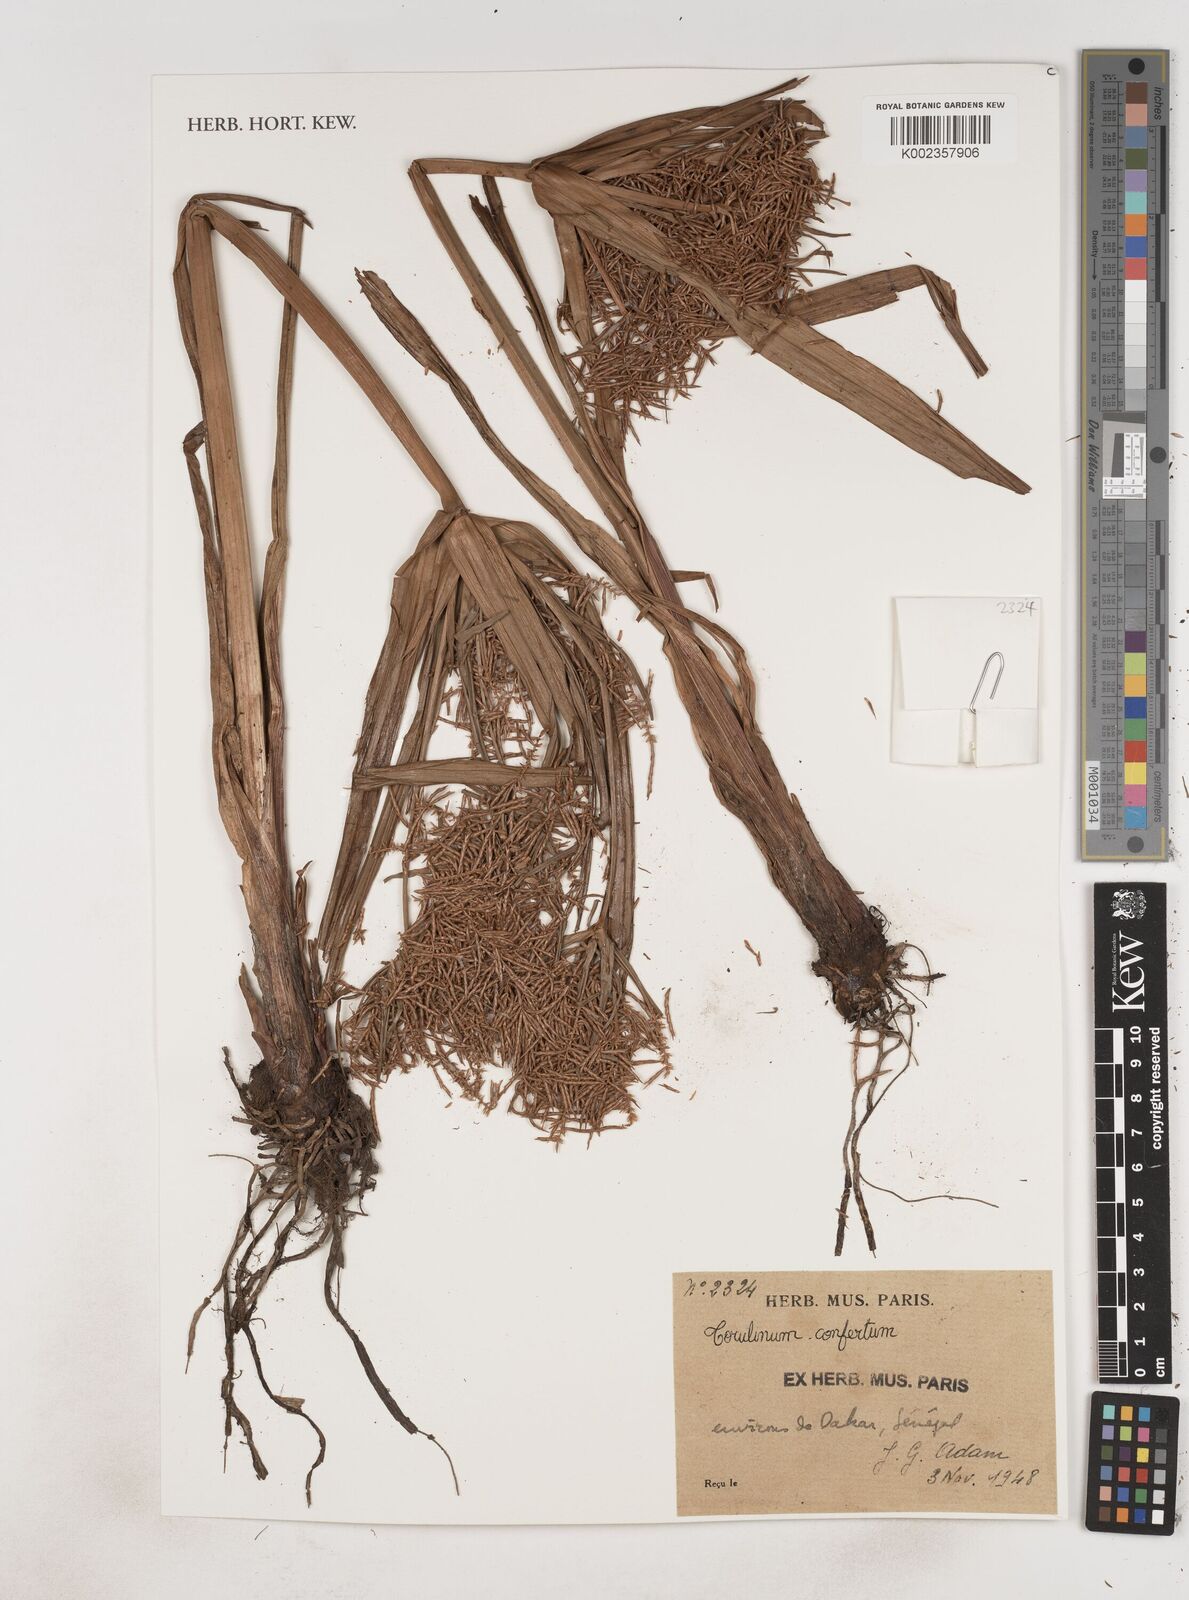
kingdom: Plantae
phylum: Tracheophyta
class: Liliopsida
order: Poales
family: Cyperaceae
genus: Cyperus
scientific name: Cyperus odoratus
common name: Fragrant flatsedge
